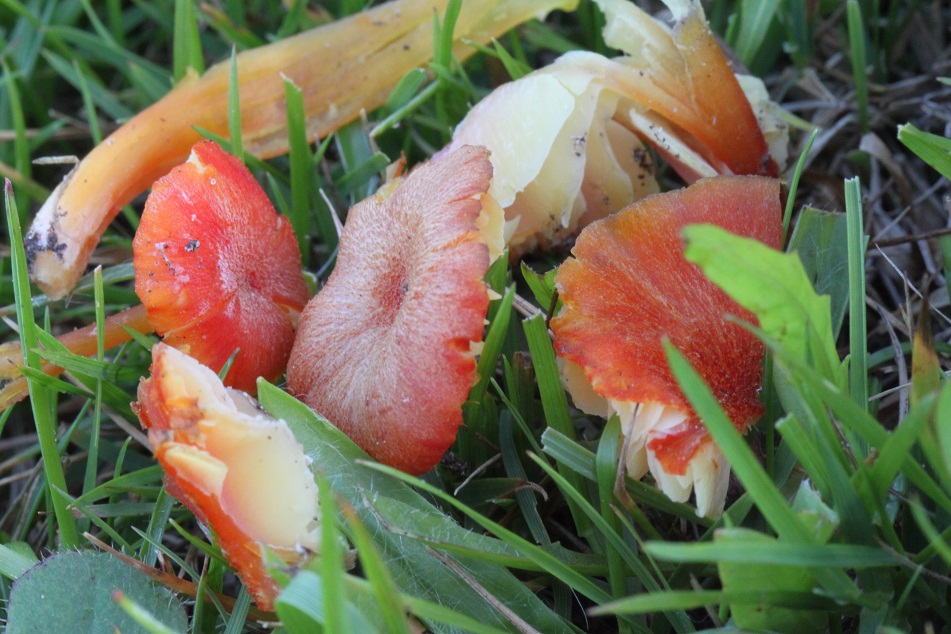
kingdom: Fungi
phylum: Basidiomycota
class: Agaricomycetes
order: Agaricales
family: Hygrophoraceae
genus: Hygrocybe
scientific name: Hygrocybe helobia
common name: hvidløgs-vokshat
